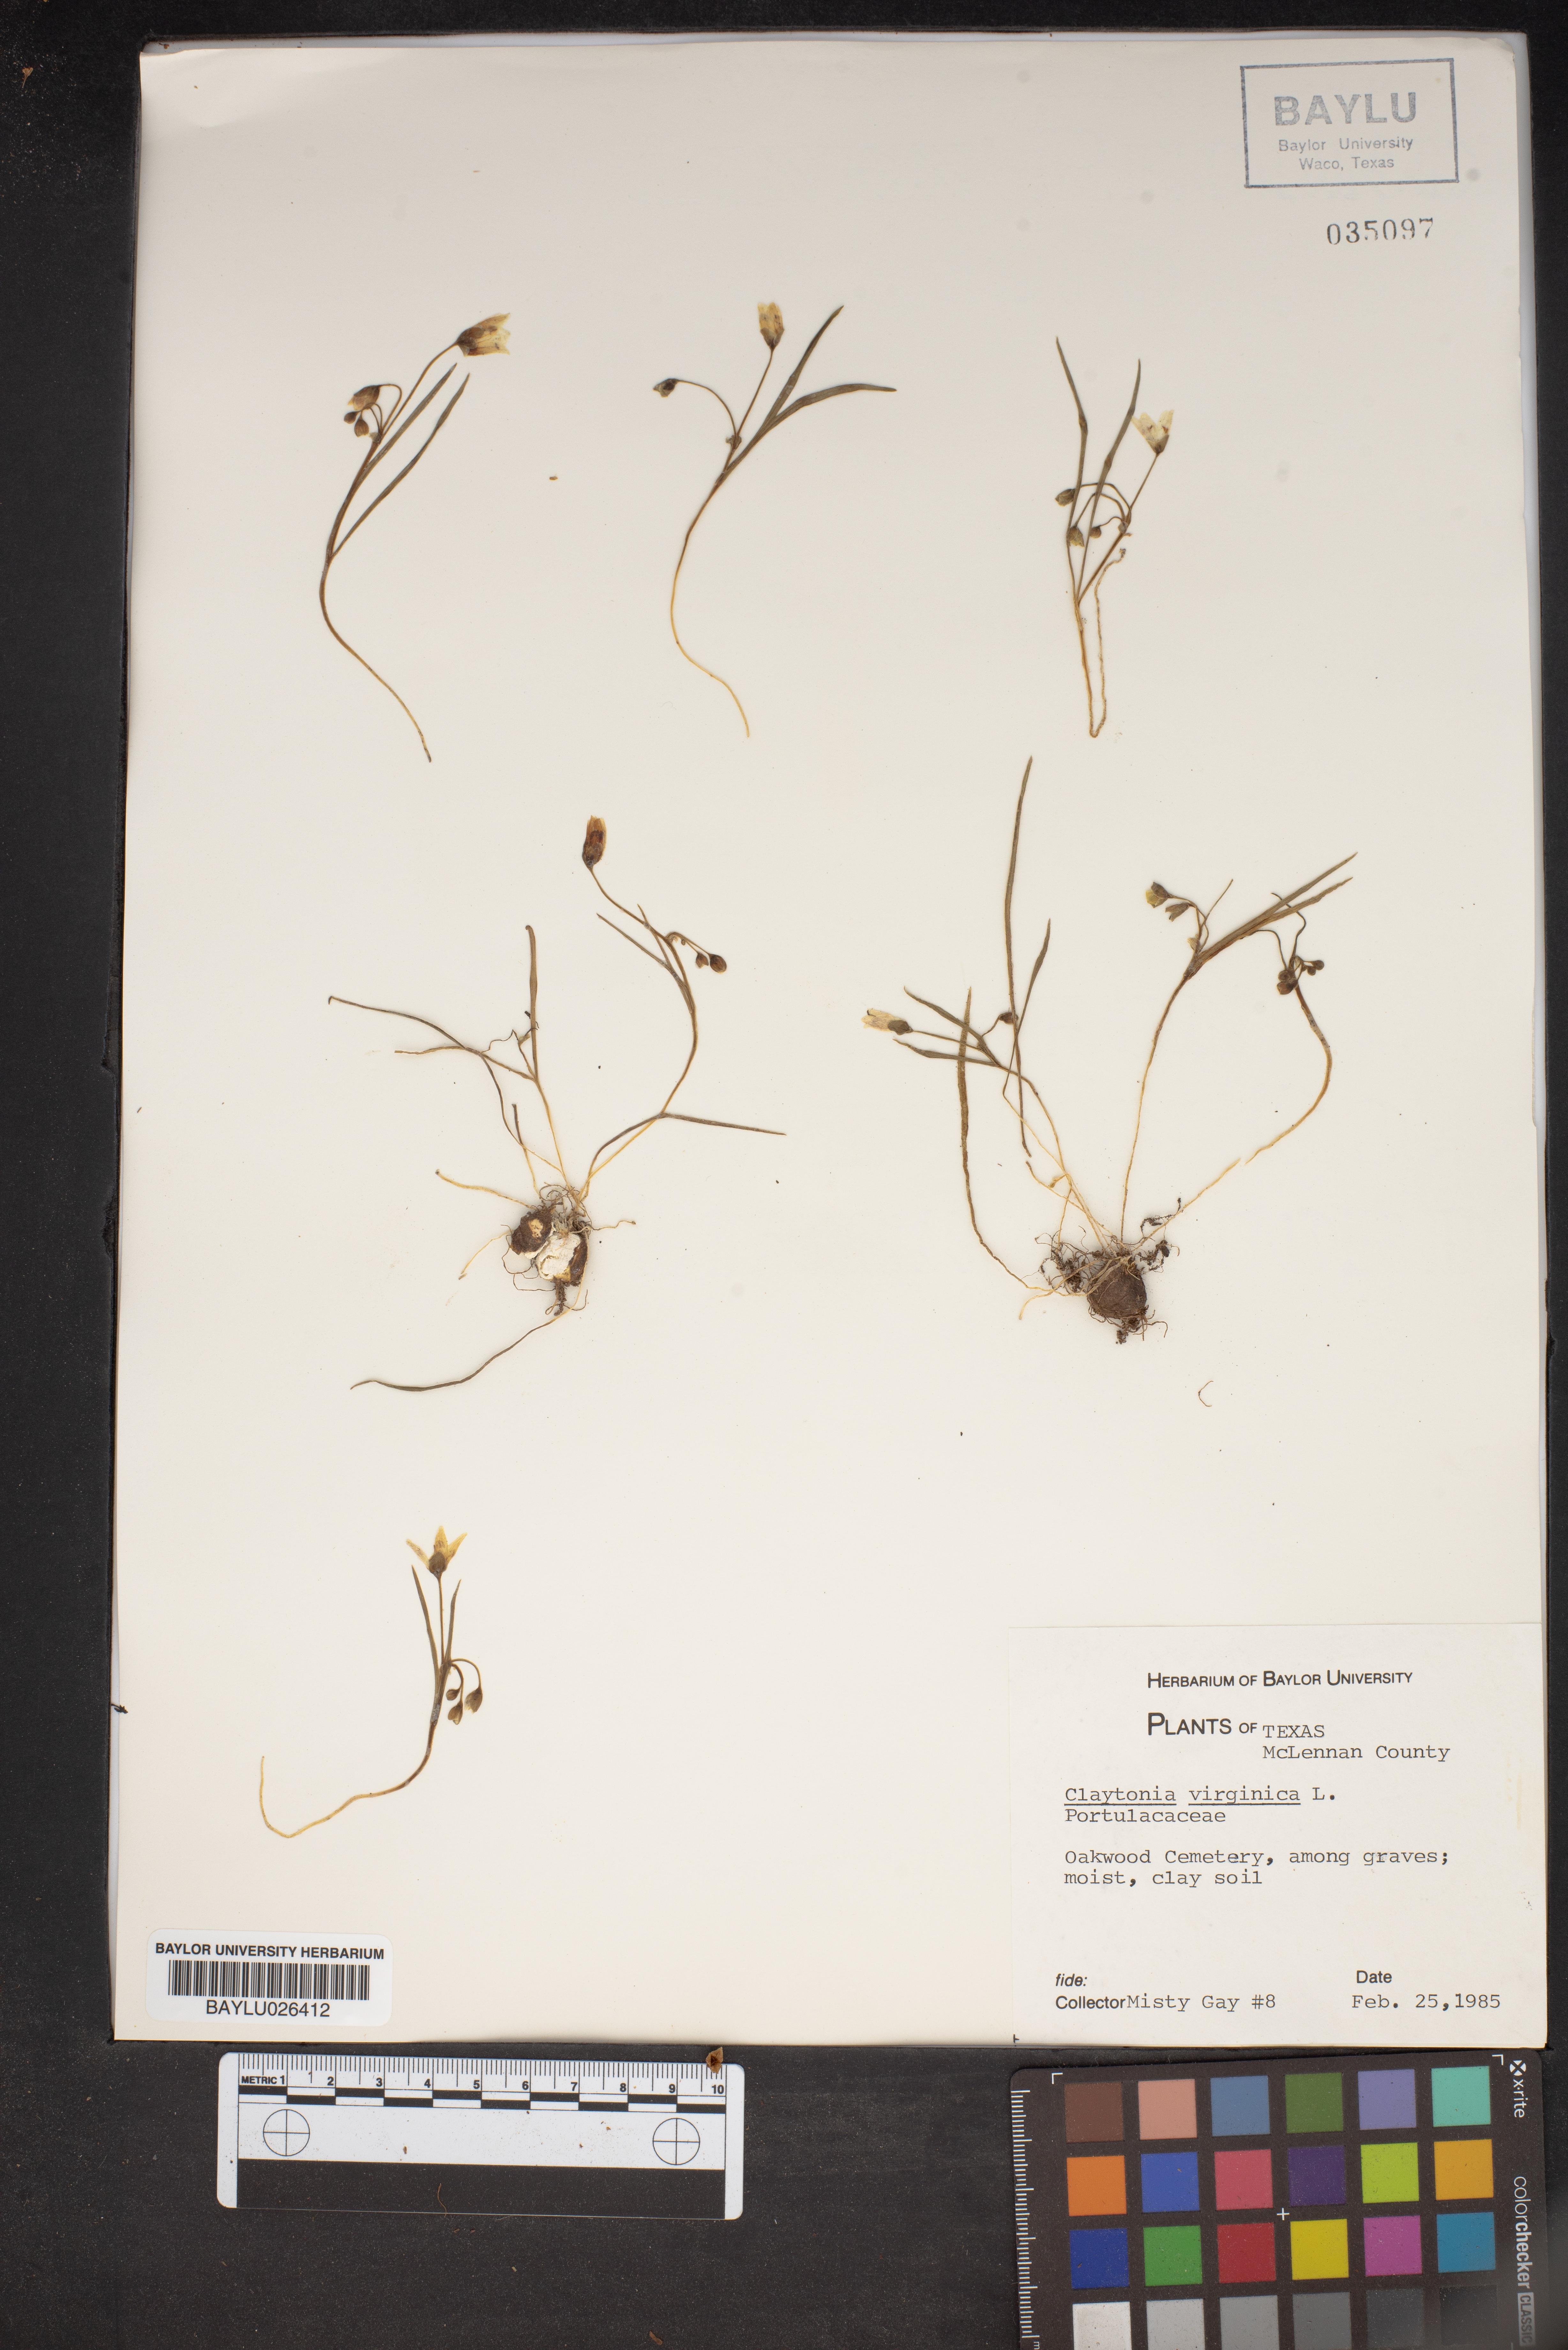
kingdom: Plantae
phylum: Tracheophyta
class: Magnoliopsida
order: Caryophyllales
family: Montiaceae
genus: Claytonia
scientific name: Claytonia virginica
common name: Virginia springbeauty
